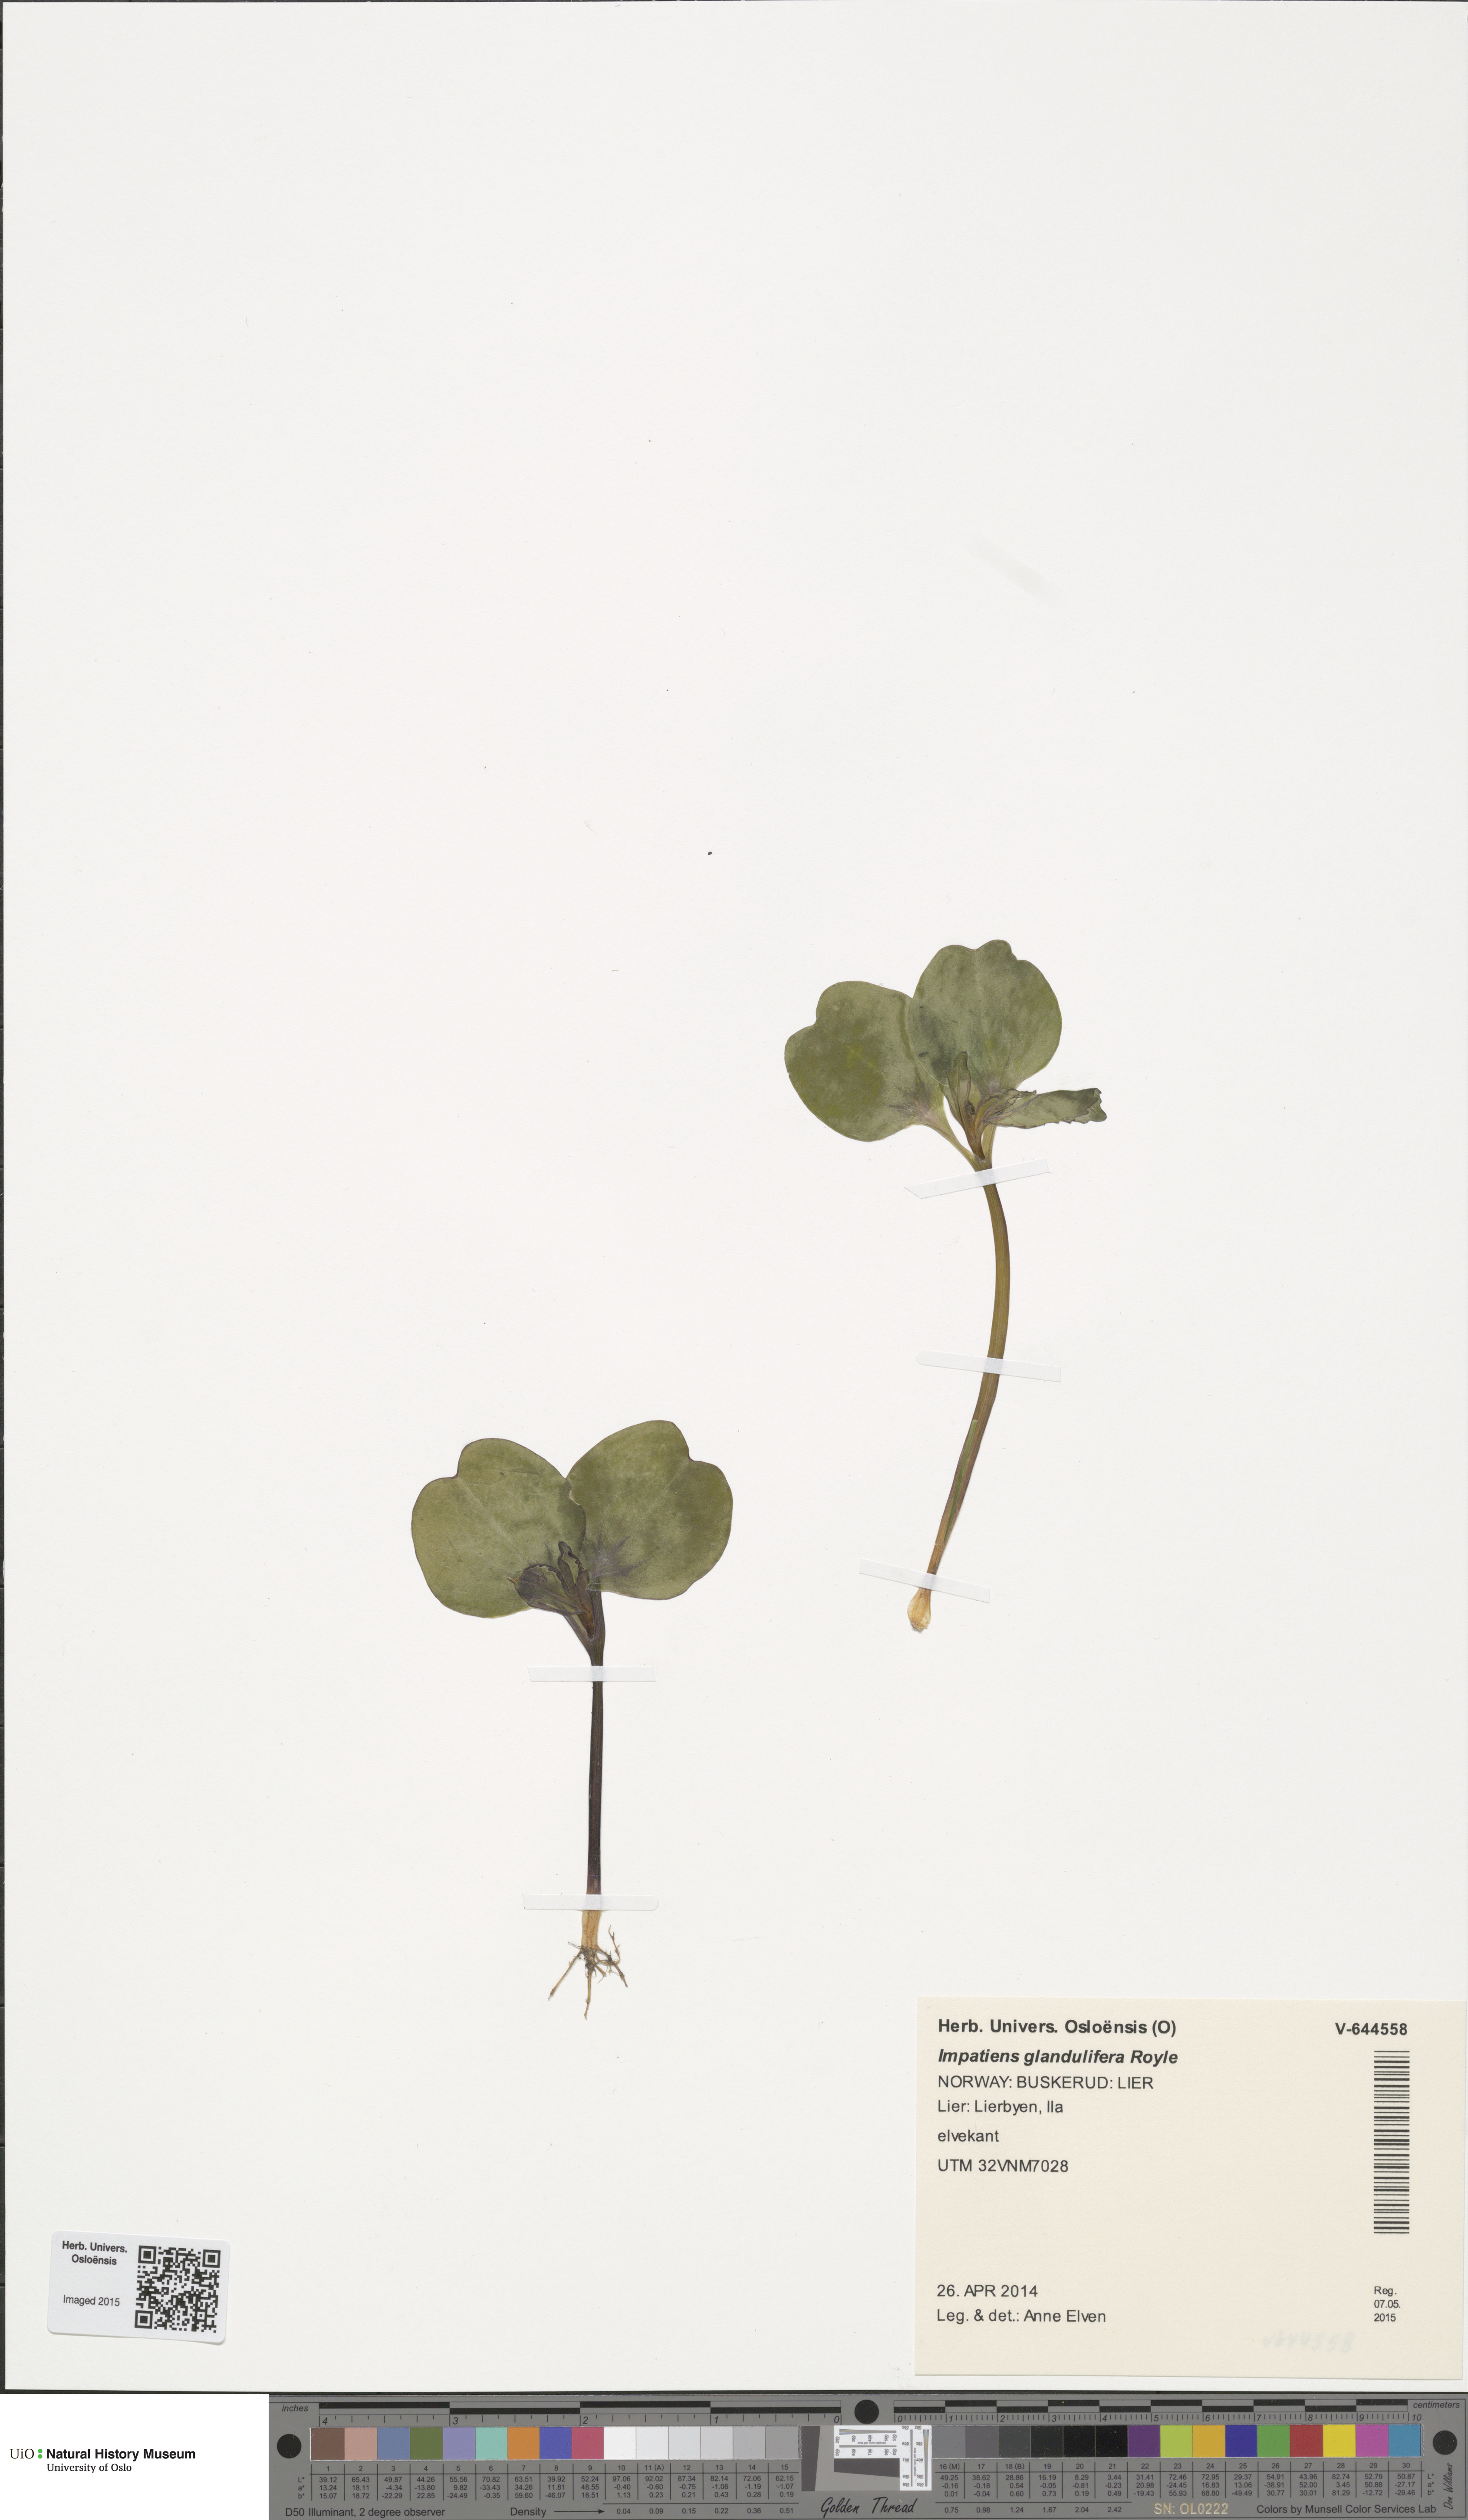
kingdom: Plantae
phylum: Tracheophyta
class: Magnoliopsida
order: Ericales
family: Balsaminaceae
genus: Impatiens
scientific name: Impatiens glandulifera
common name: Himalayan balsam
